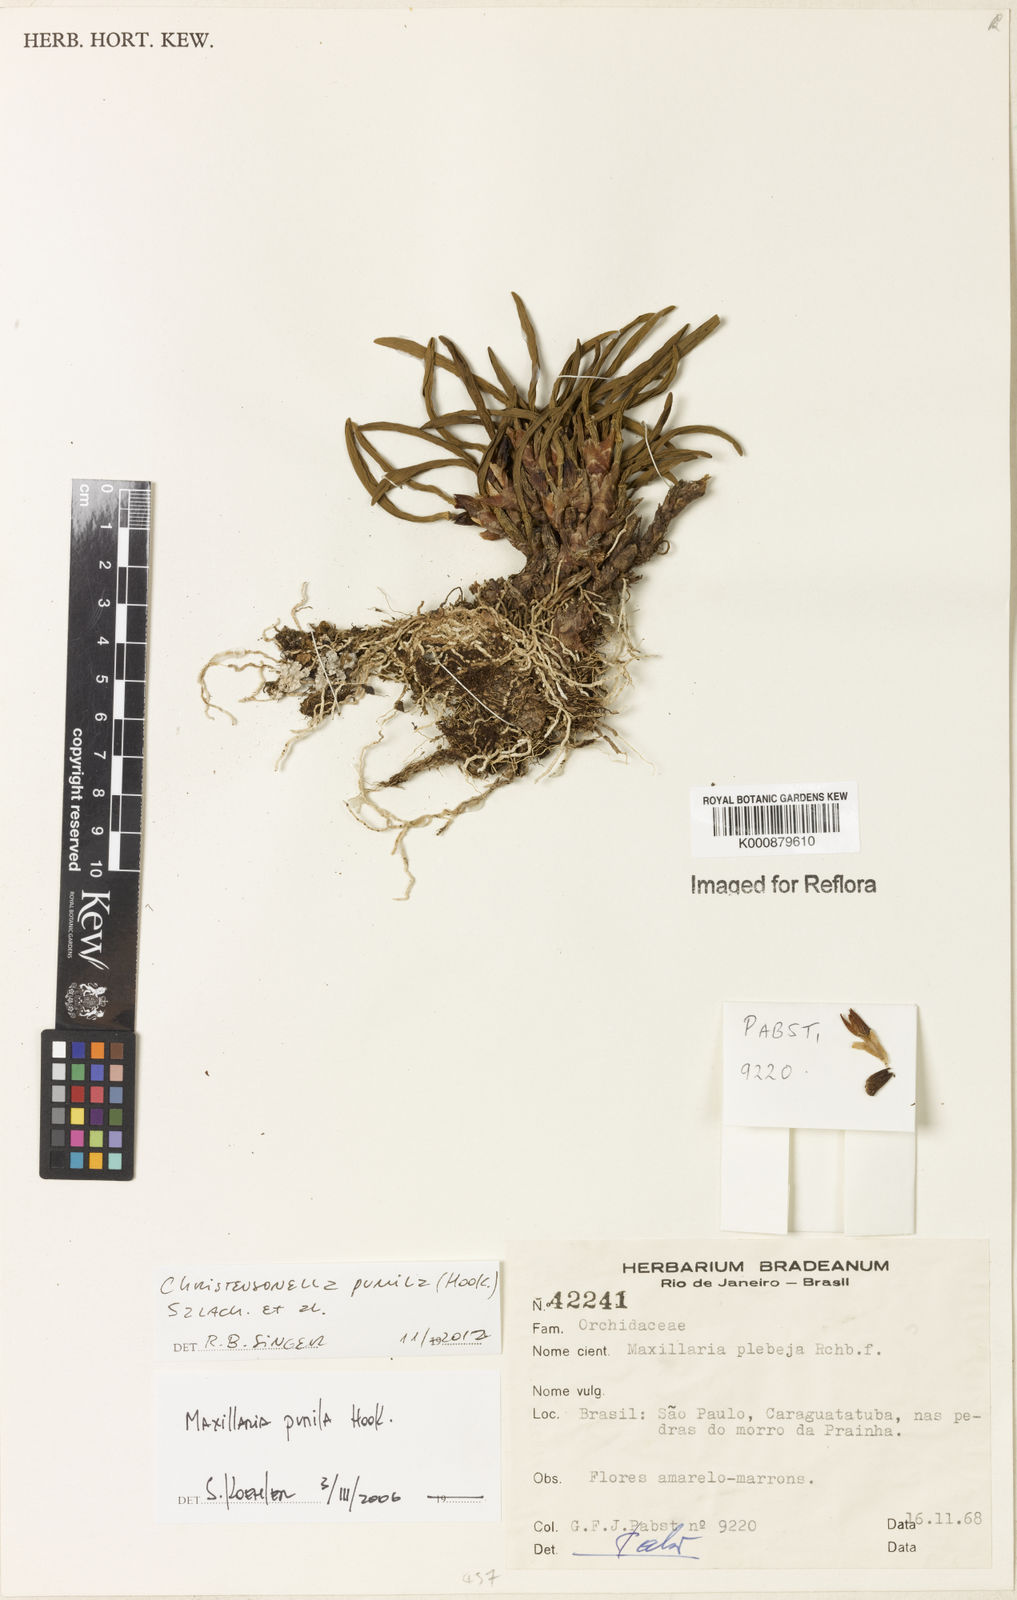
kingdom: Plantae
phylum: Tracheophyta
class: Liliopsida
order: Asparagales
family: Orchidaceae
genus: Maxillaria
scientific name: Maxillaria pumila
